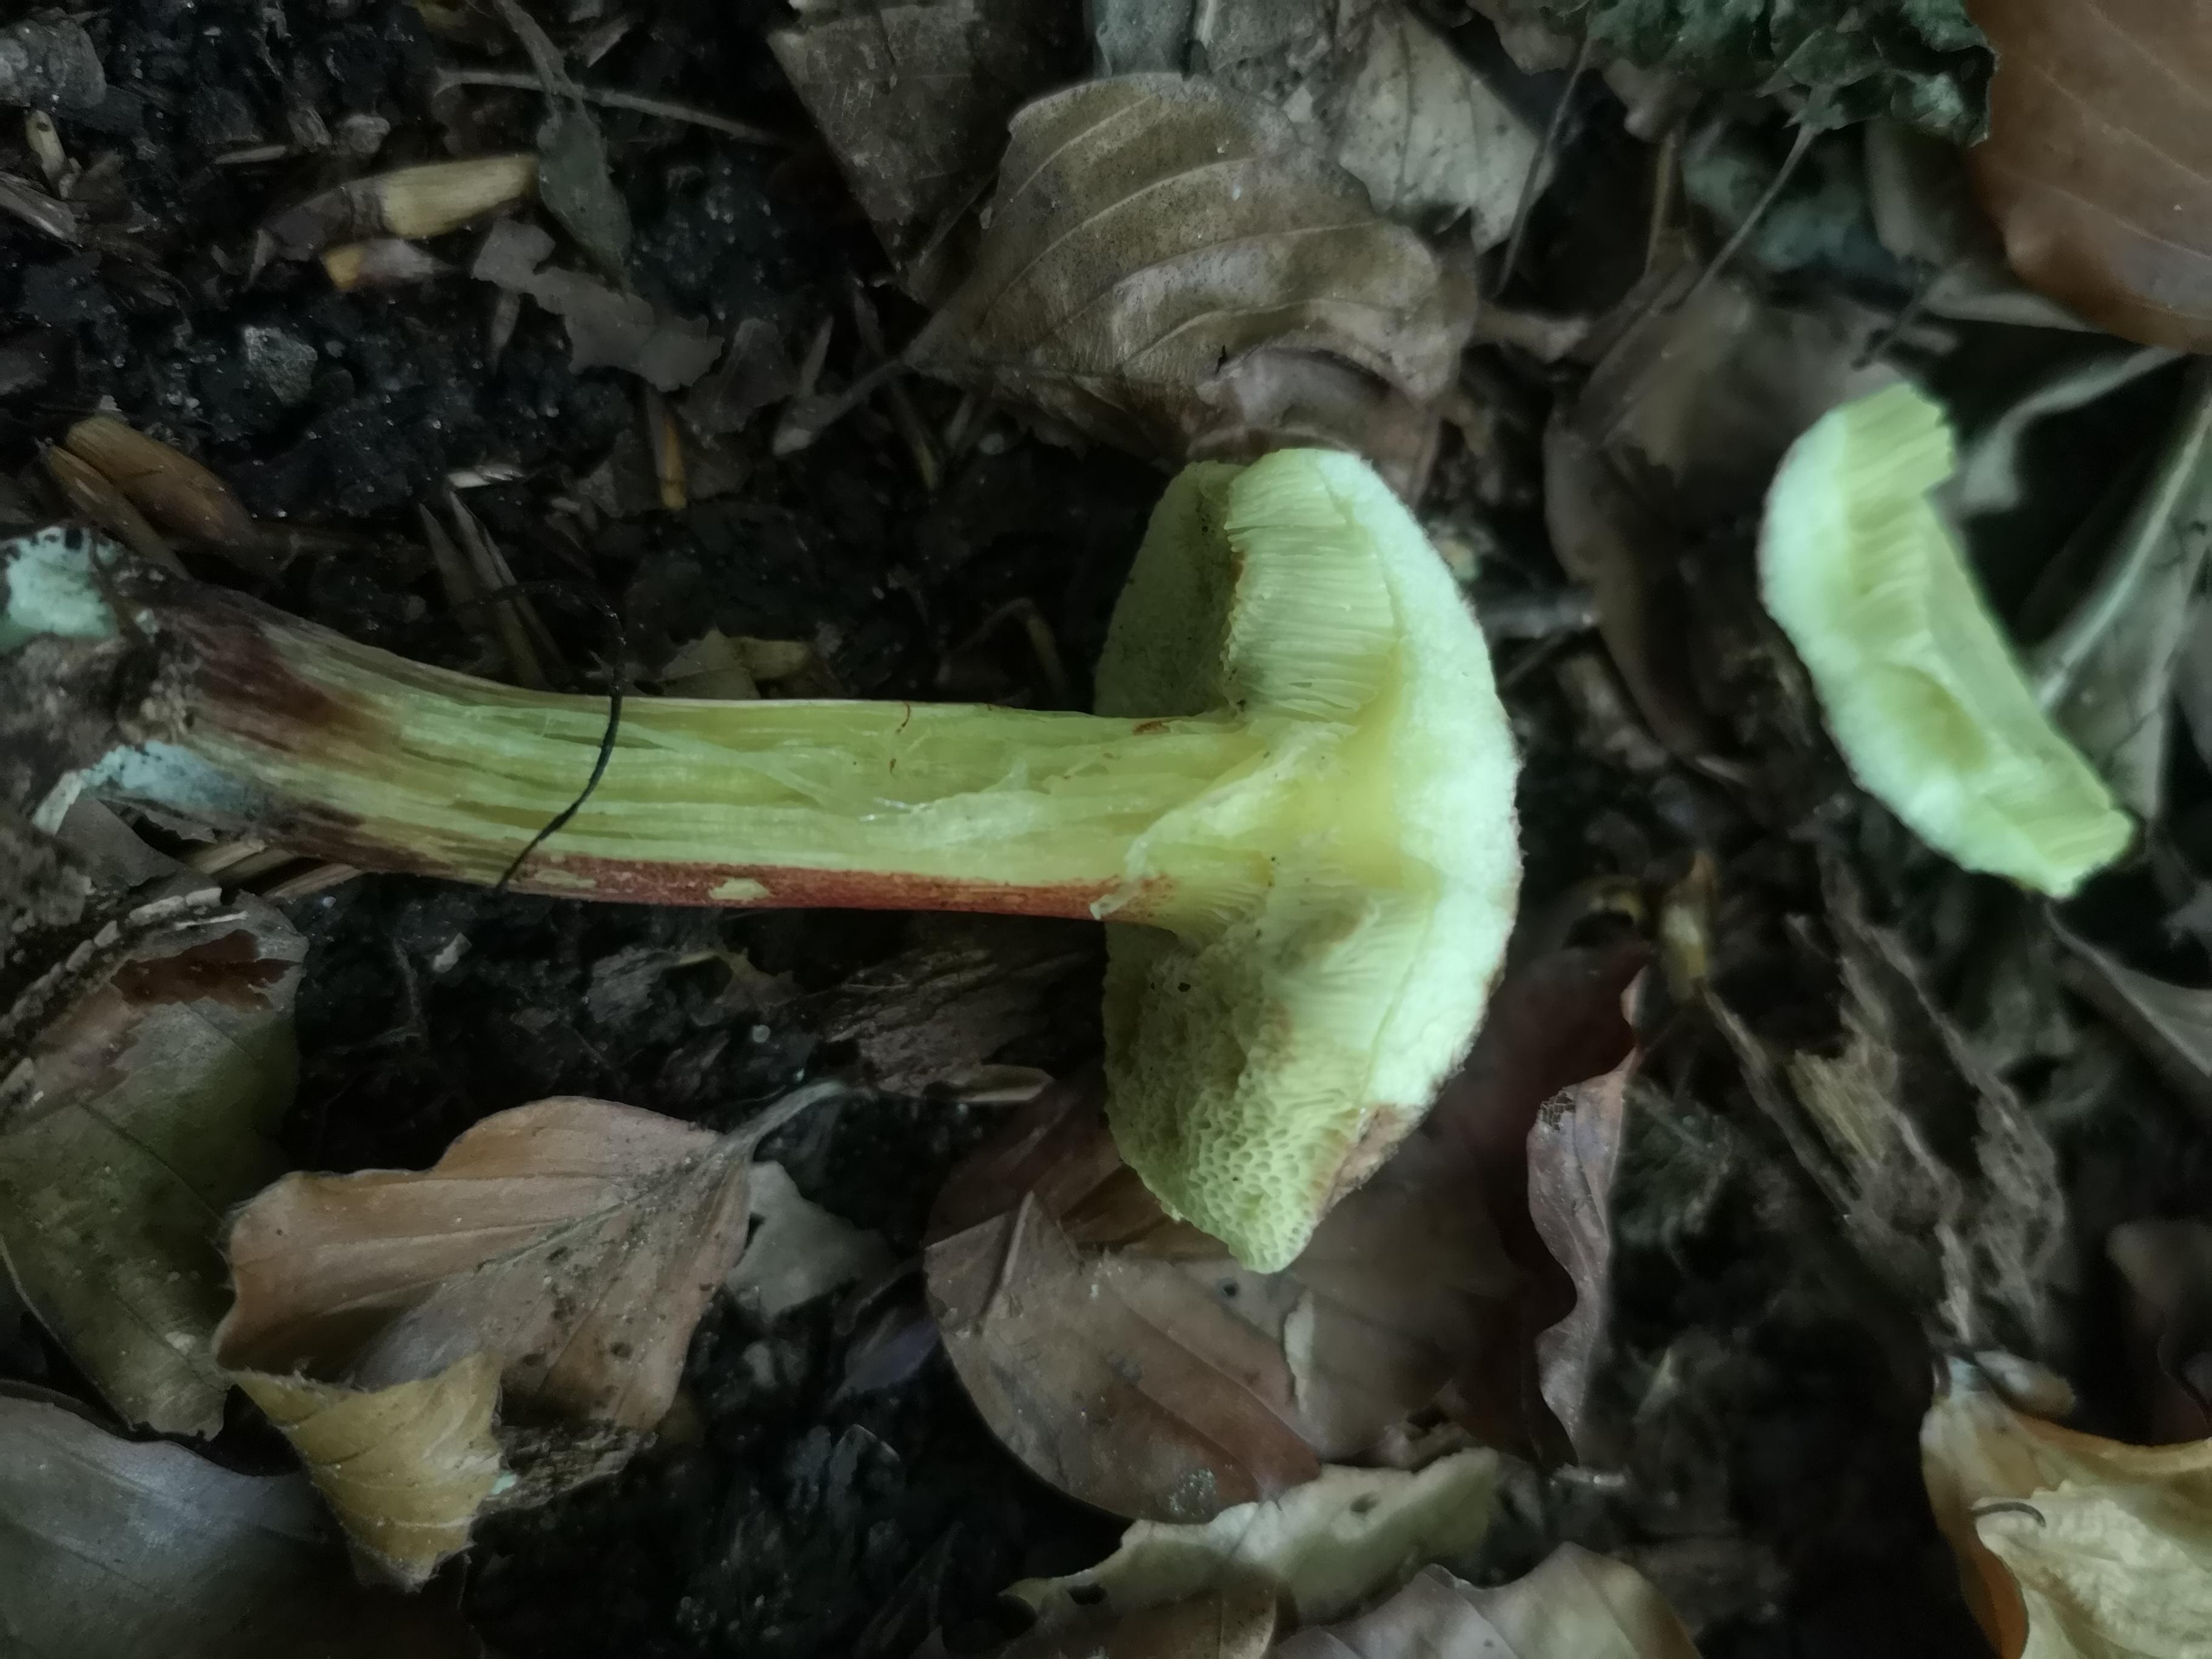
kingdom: Fungi
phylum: Basidiomycota
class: Agaricomycetes
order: Boletales
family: Boletaceae
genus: Xerocomellus
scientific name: Xerocomellus
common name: dværgrørhat
